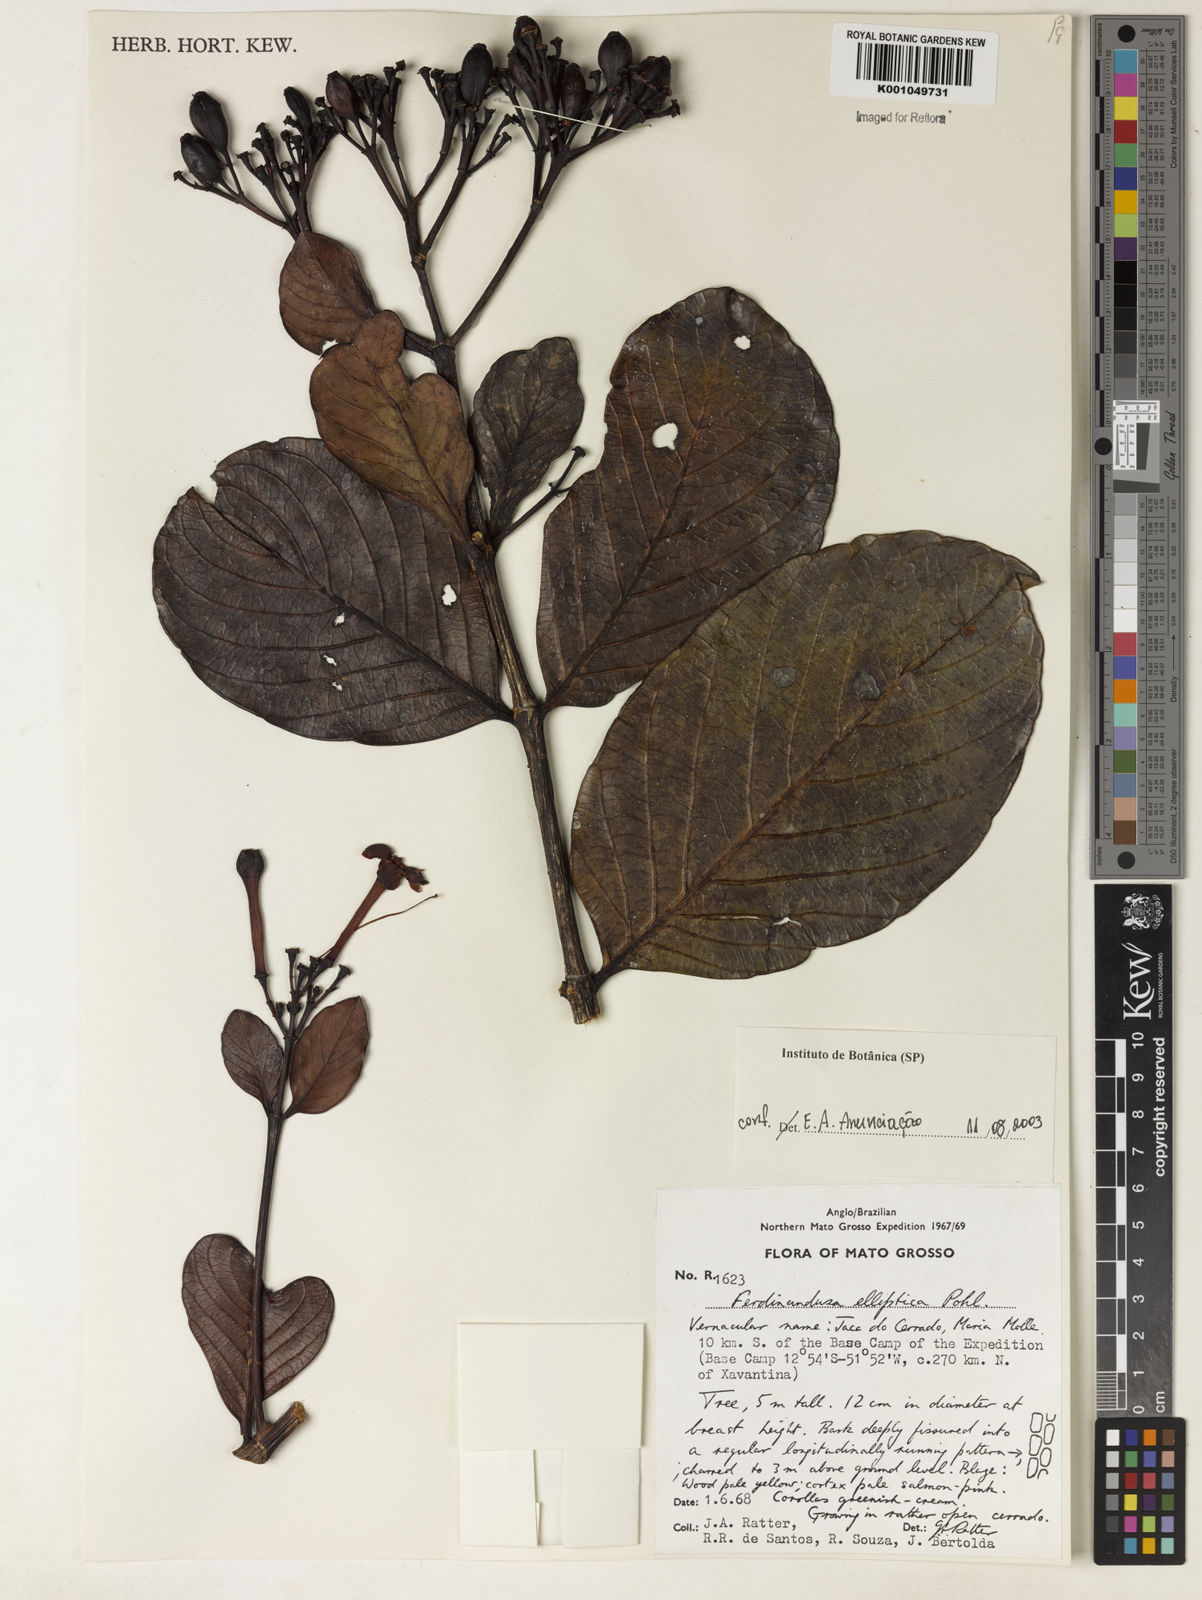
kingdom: Plantae
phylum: Tracheophyta
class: Magnoliopsida
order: Gentianales
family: Rubiaceae
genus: Ferdinandusa
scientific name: Ferdinandusa elliptica
